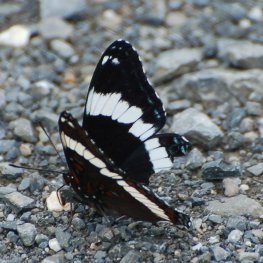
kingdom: Animalia
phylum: Arthropoda
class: Insecta
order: Lepidoptera
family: Nymphalidae
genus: Limenitis
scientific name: Limenitis arthemis
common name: Red-spotted Admiral
